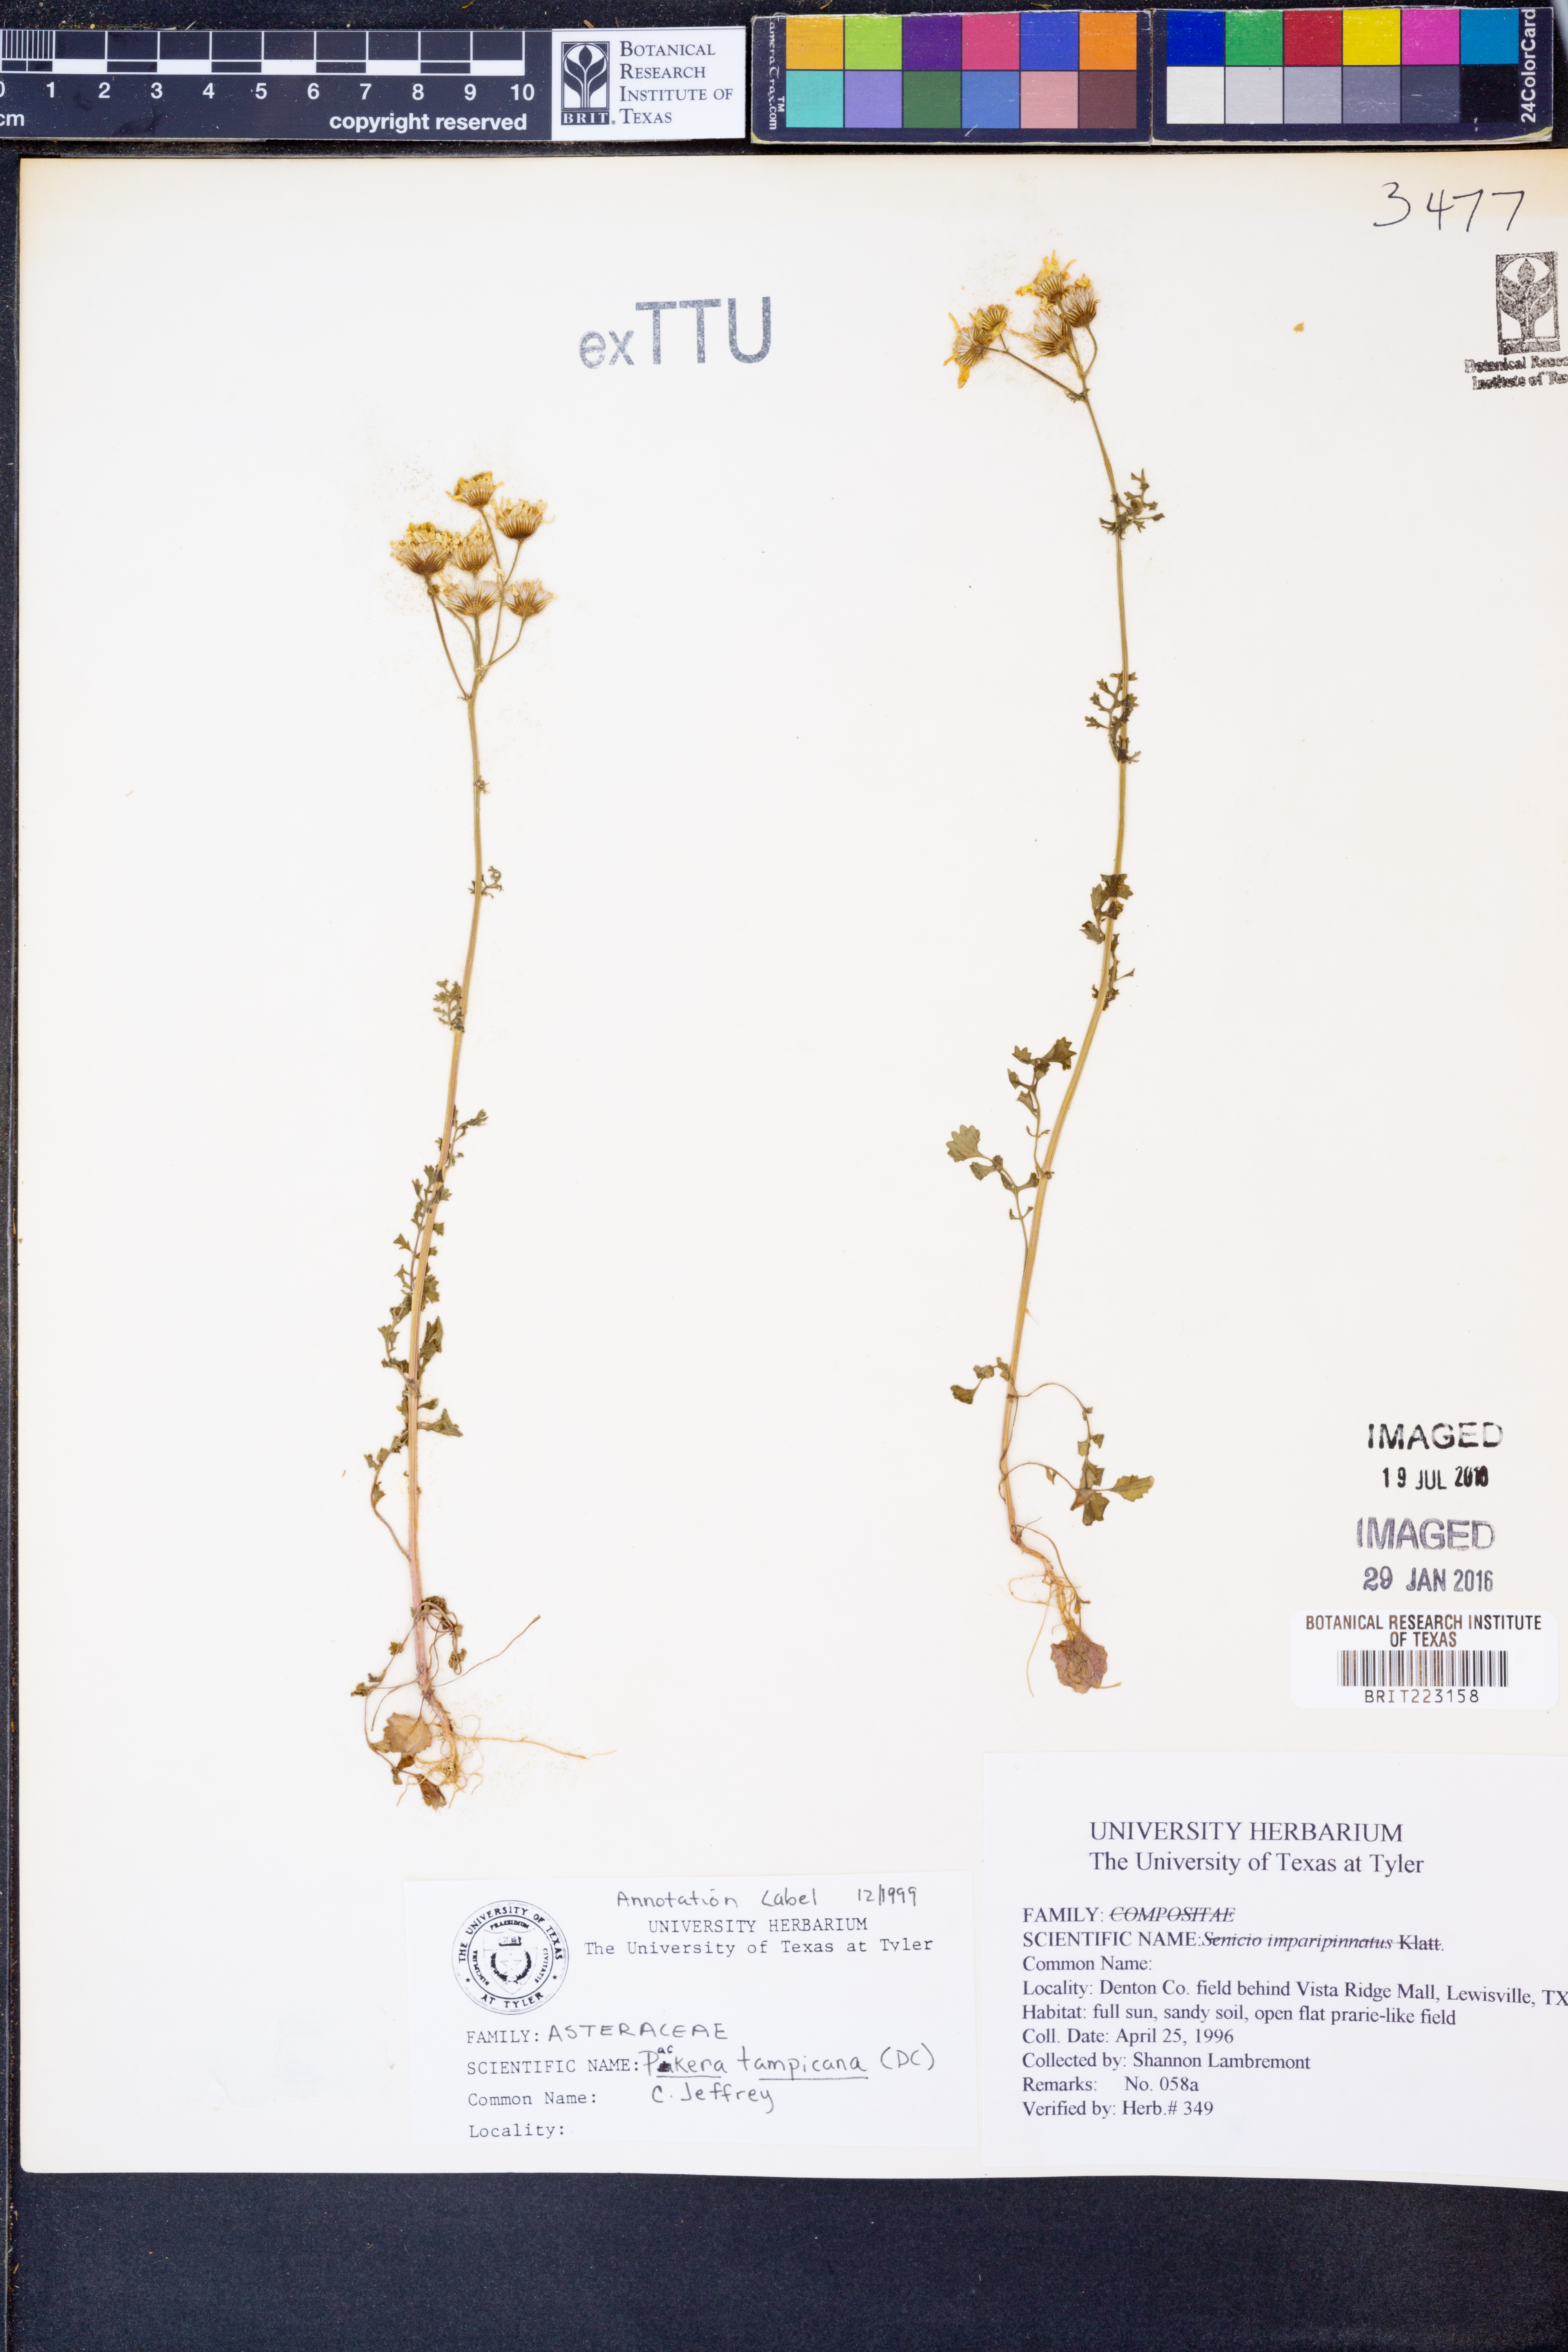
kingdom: Plantae
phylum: Tracheophyta
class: Magnoliopsida
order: Asterales
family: Asteraceae
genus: Packera
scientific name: Packera tampicana
